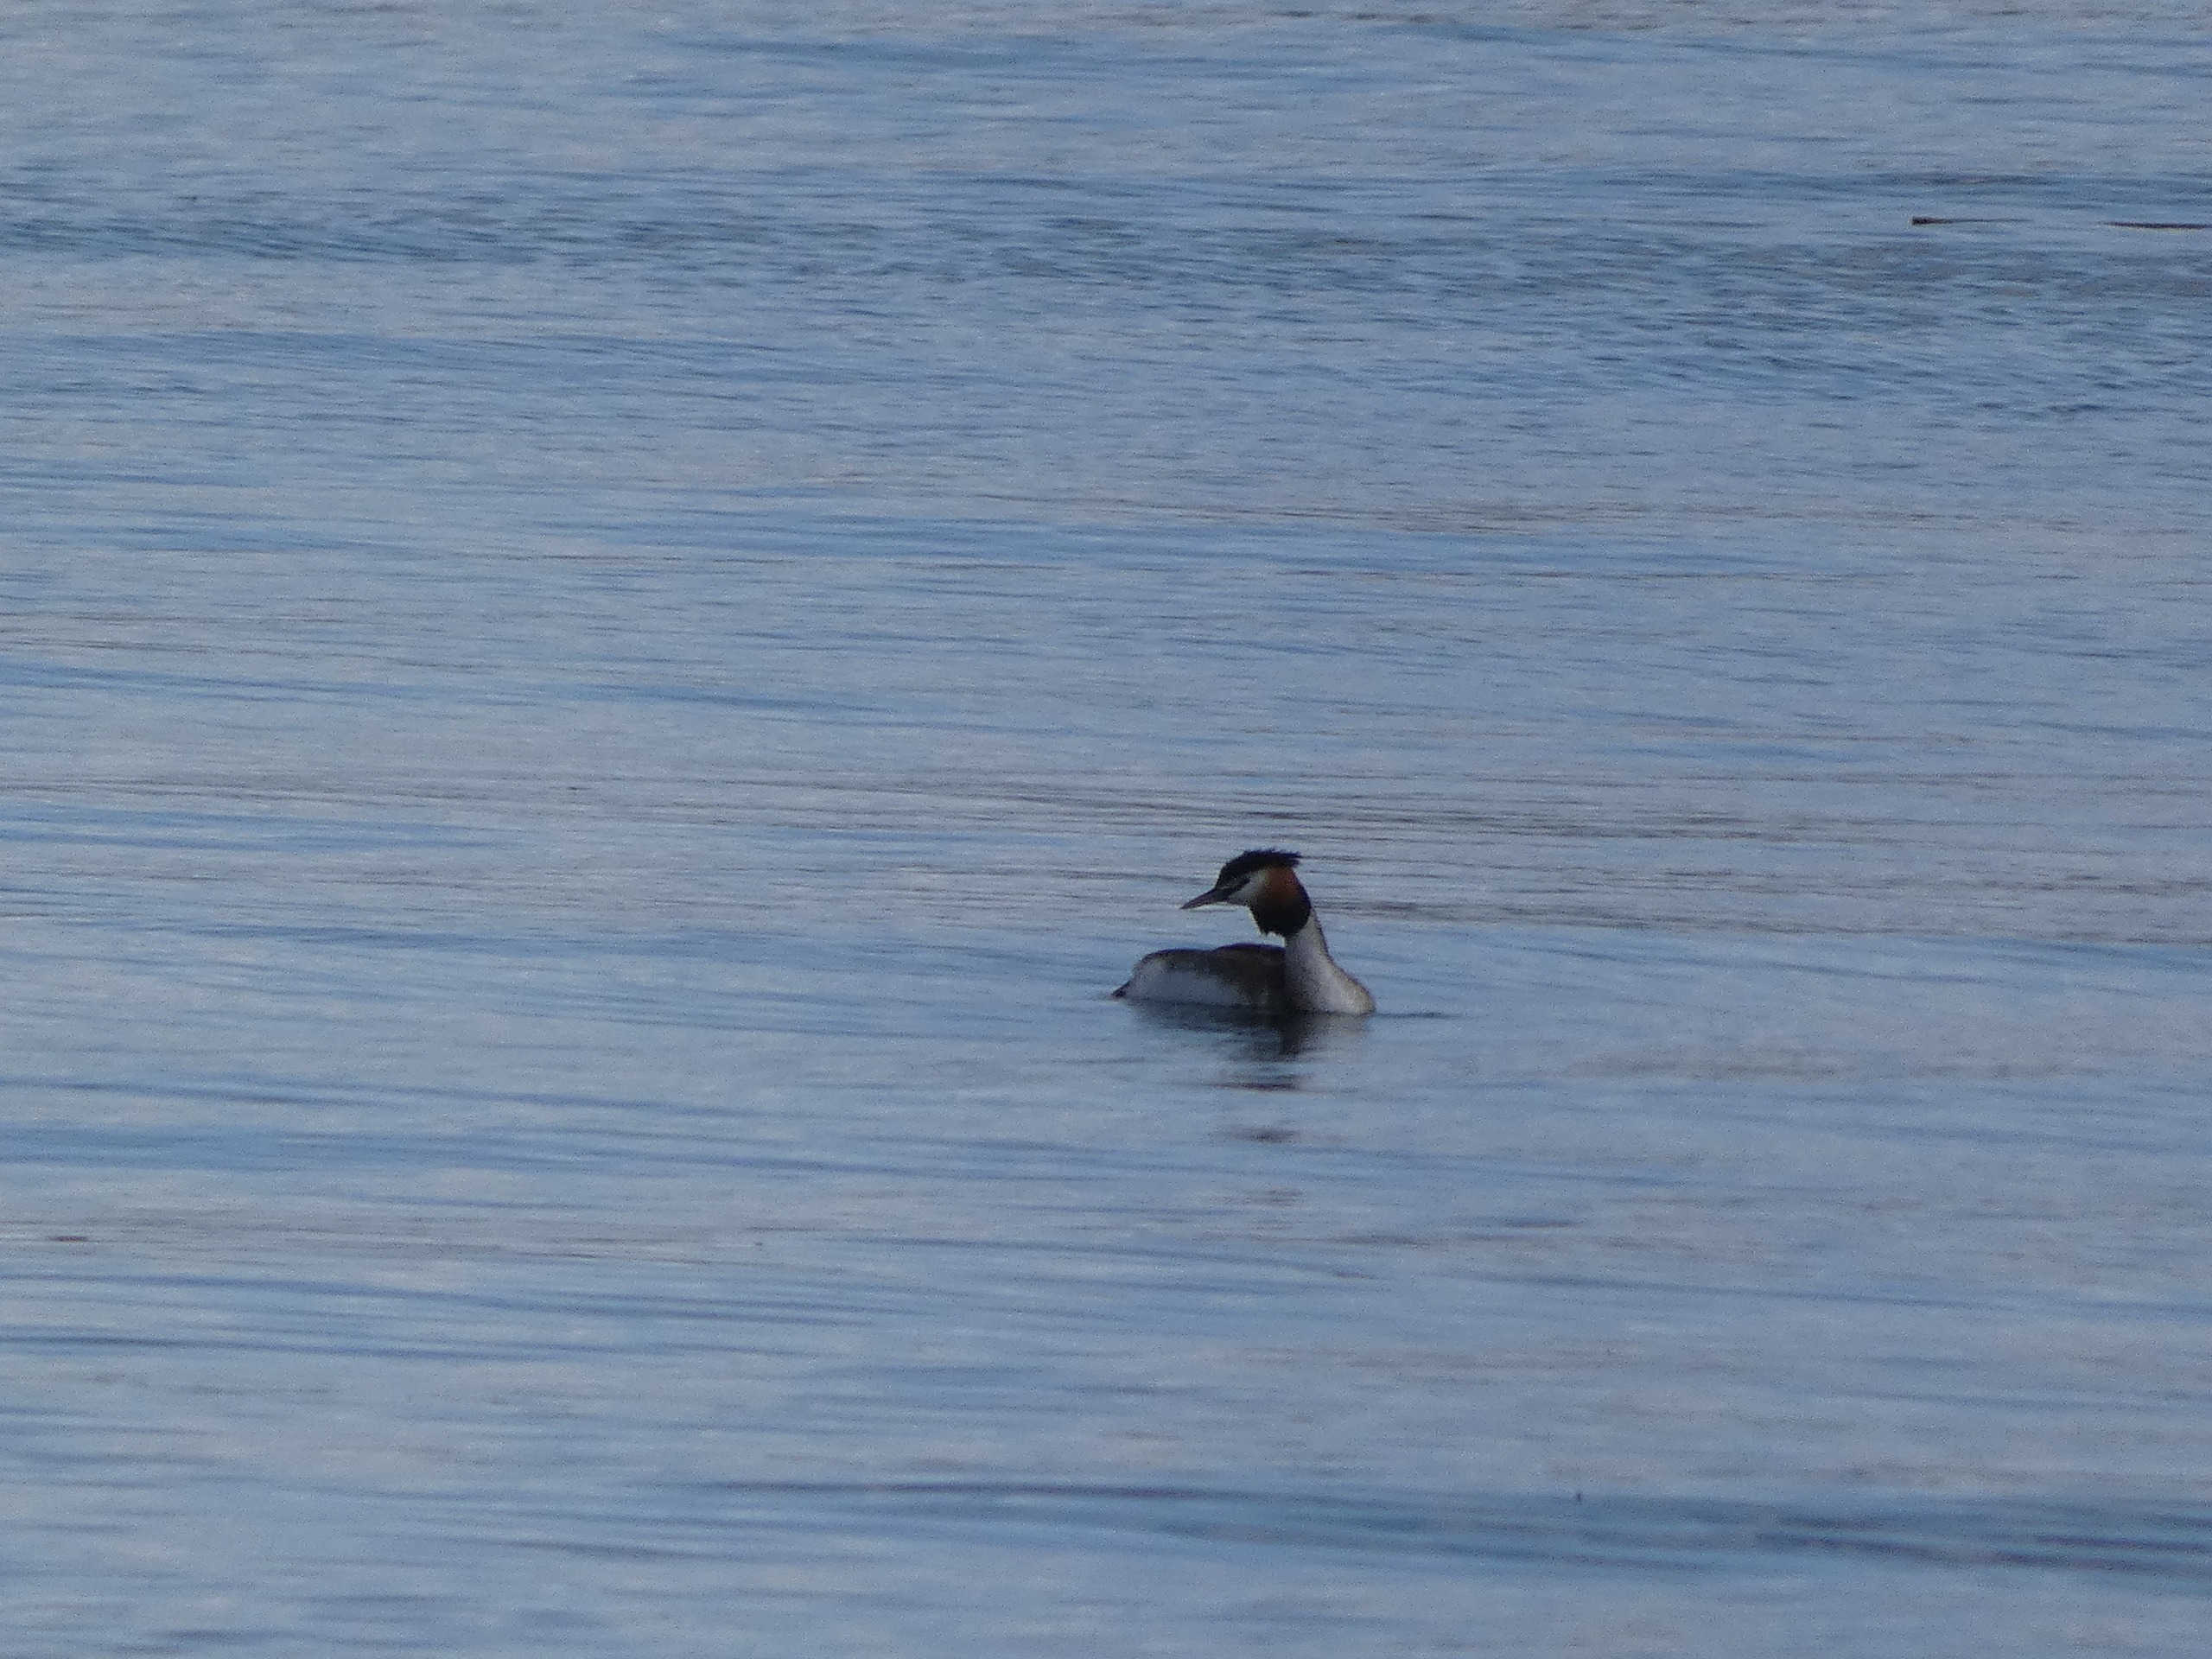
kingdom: Animalia
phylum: Chordata
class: Aves
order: Podicipediformes
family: Podicipedidae
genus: Podiceps
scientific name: Podiceps cristatus
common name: Toppet lappedykker
